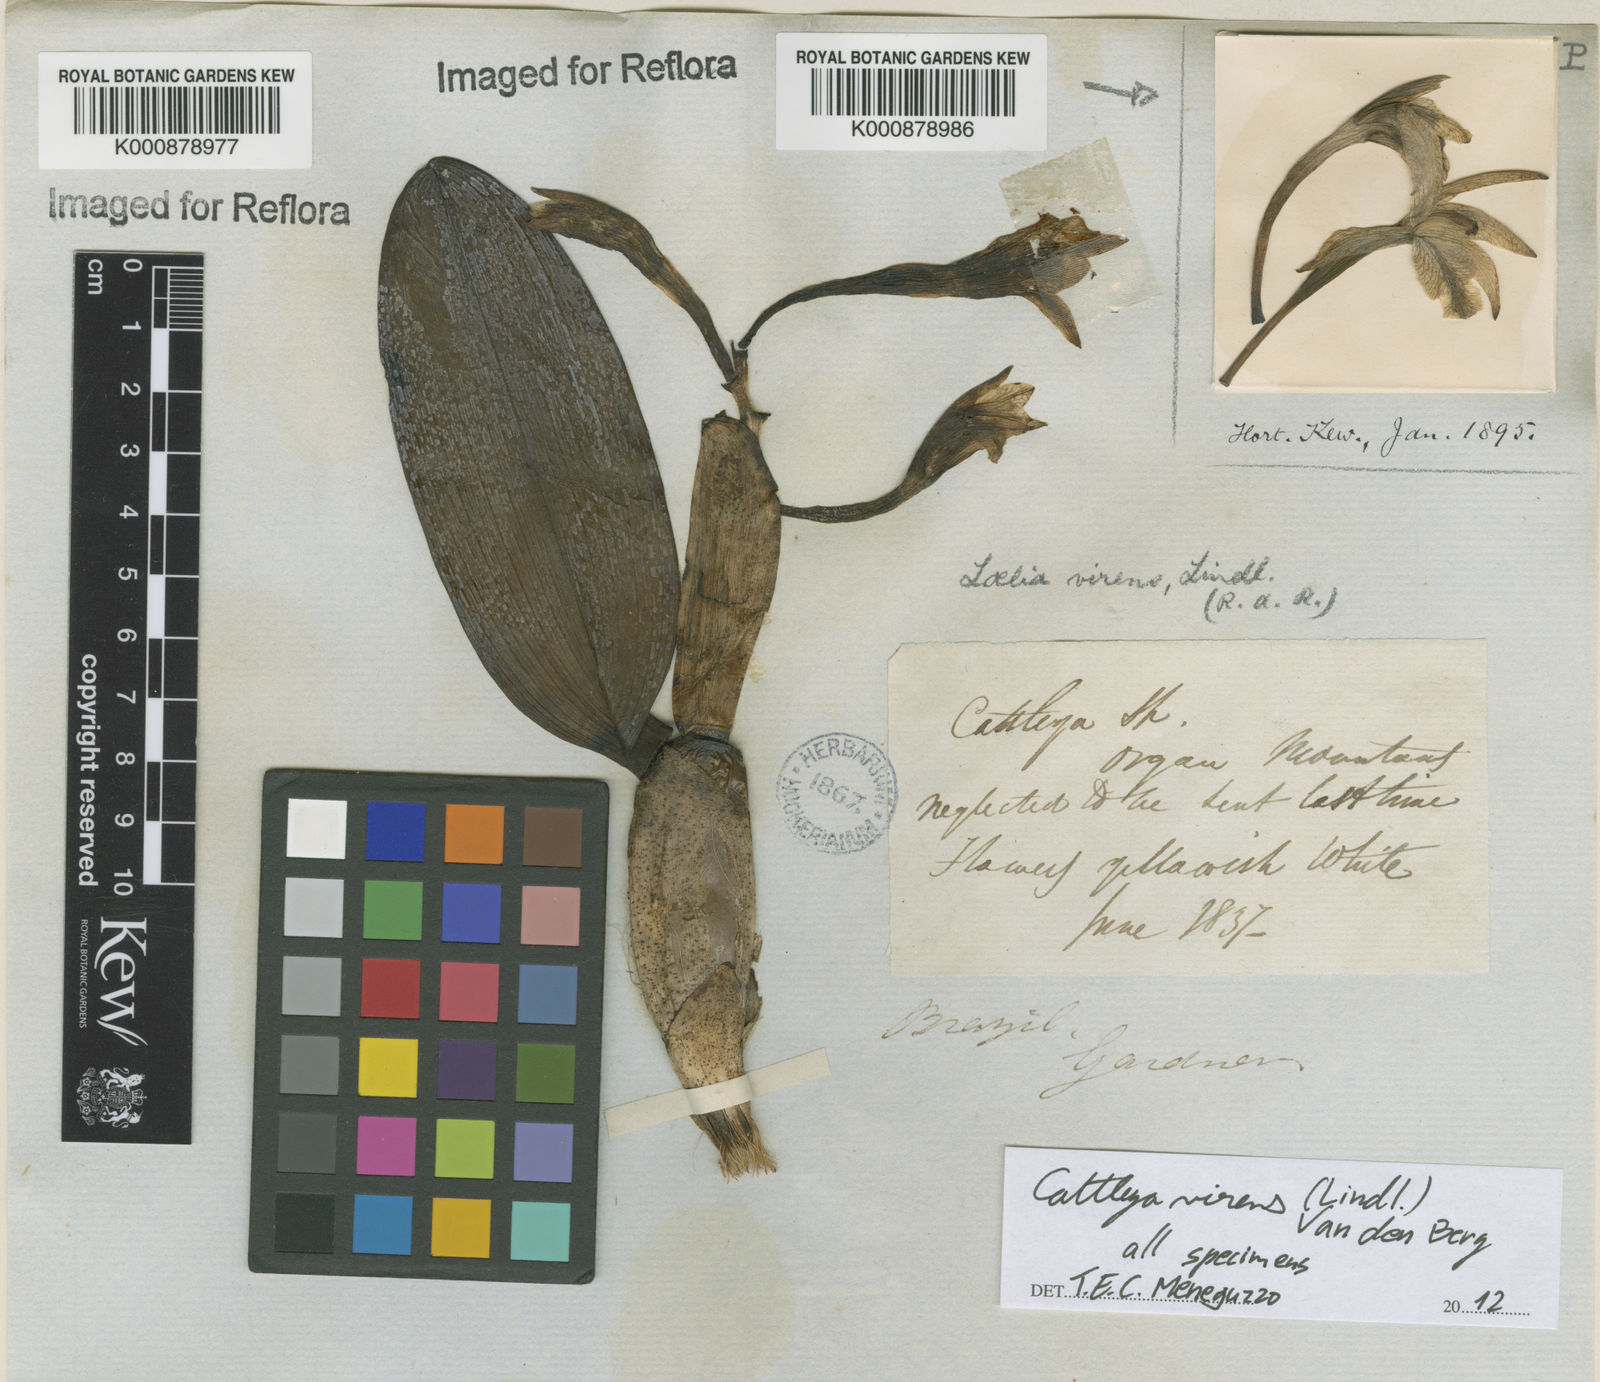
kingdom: Plantae
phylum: Tracheophyta
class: Liliopsida
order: Asparagales
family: Orchidaceae
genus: Cattleya
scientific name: Cattleya virens
